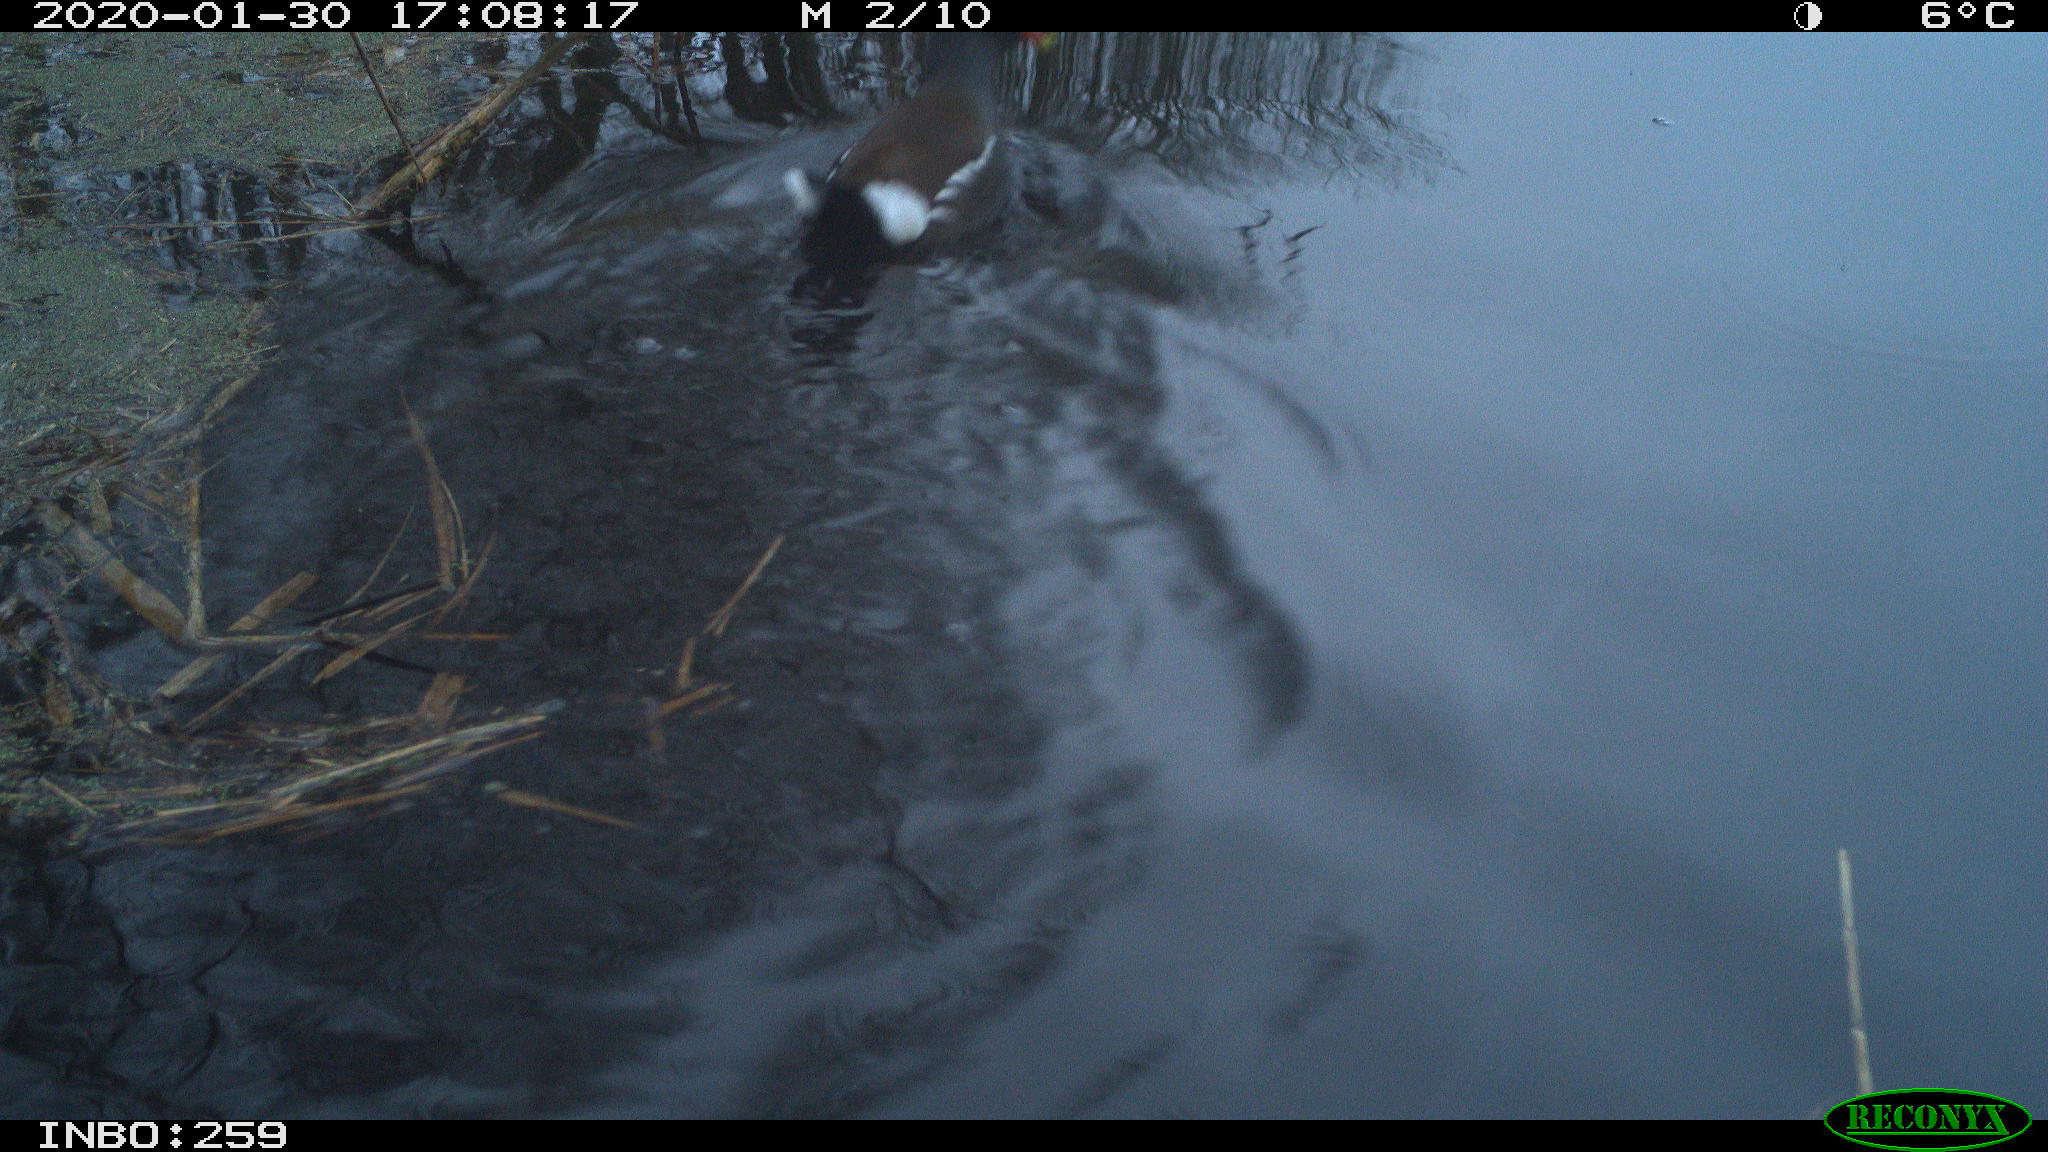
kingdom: Animalia
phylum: Chordata
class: Aves
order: Gruiformes
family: Rallidae
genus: Gallinula
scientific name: Gallinula chloropus
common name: Common moorhen
